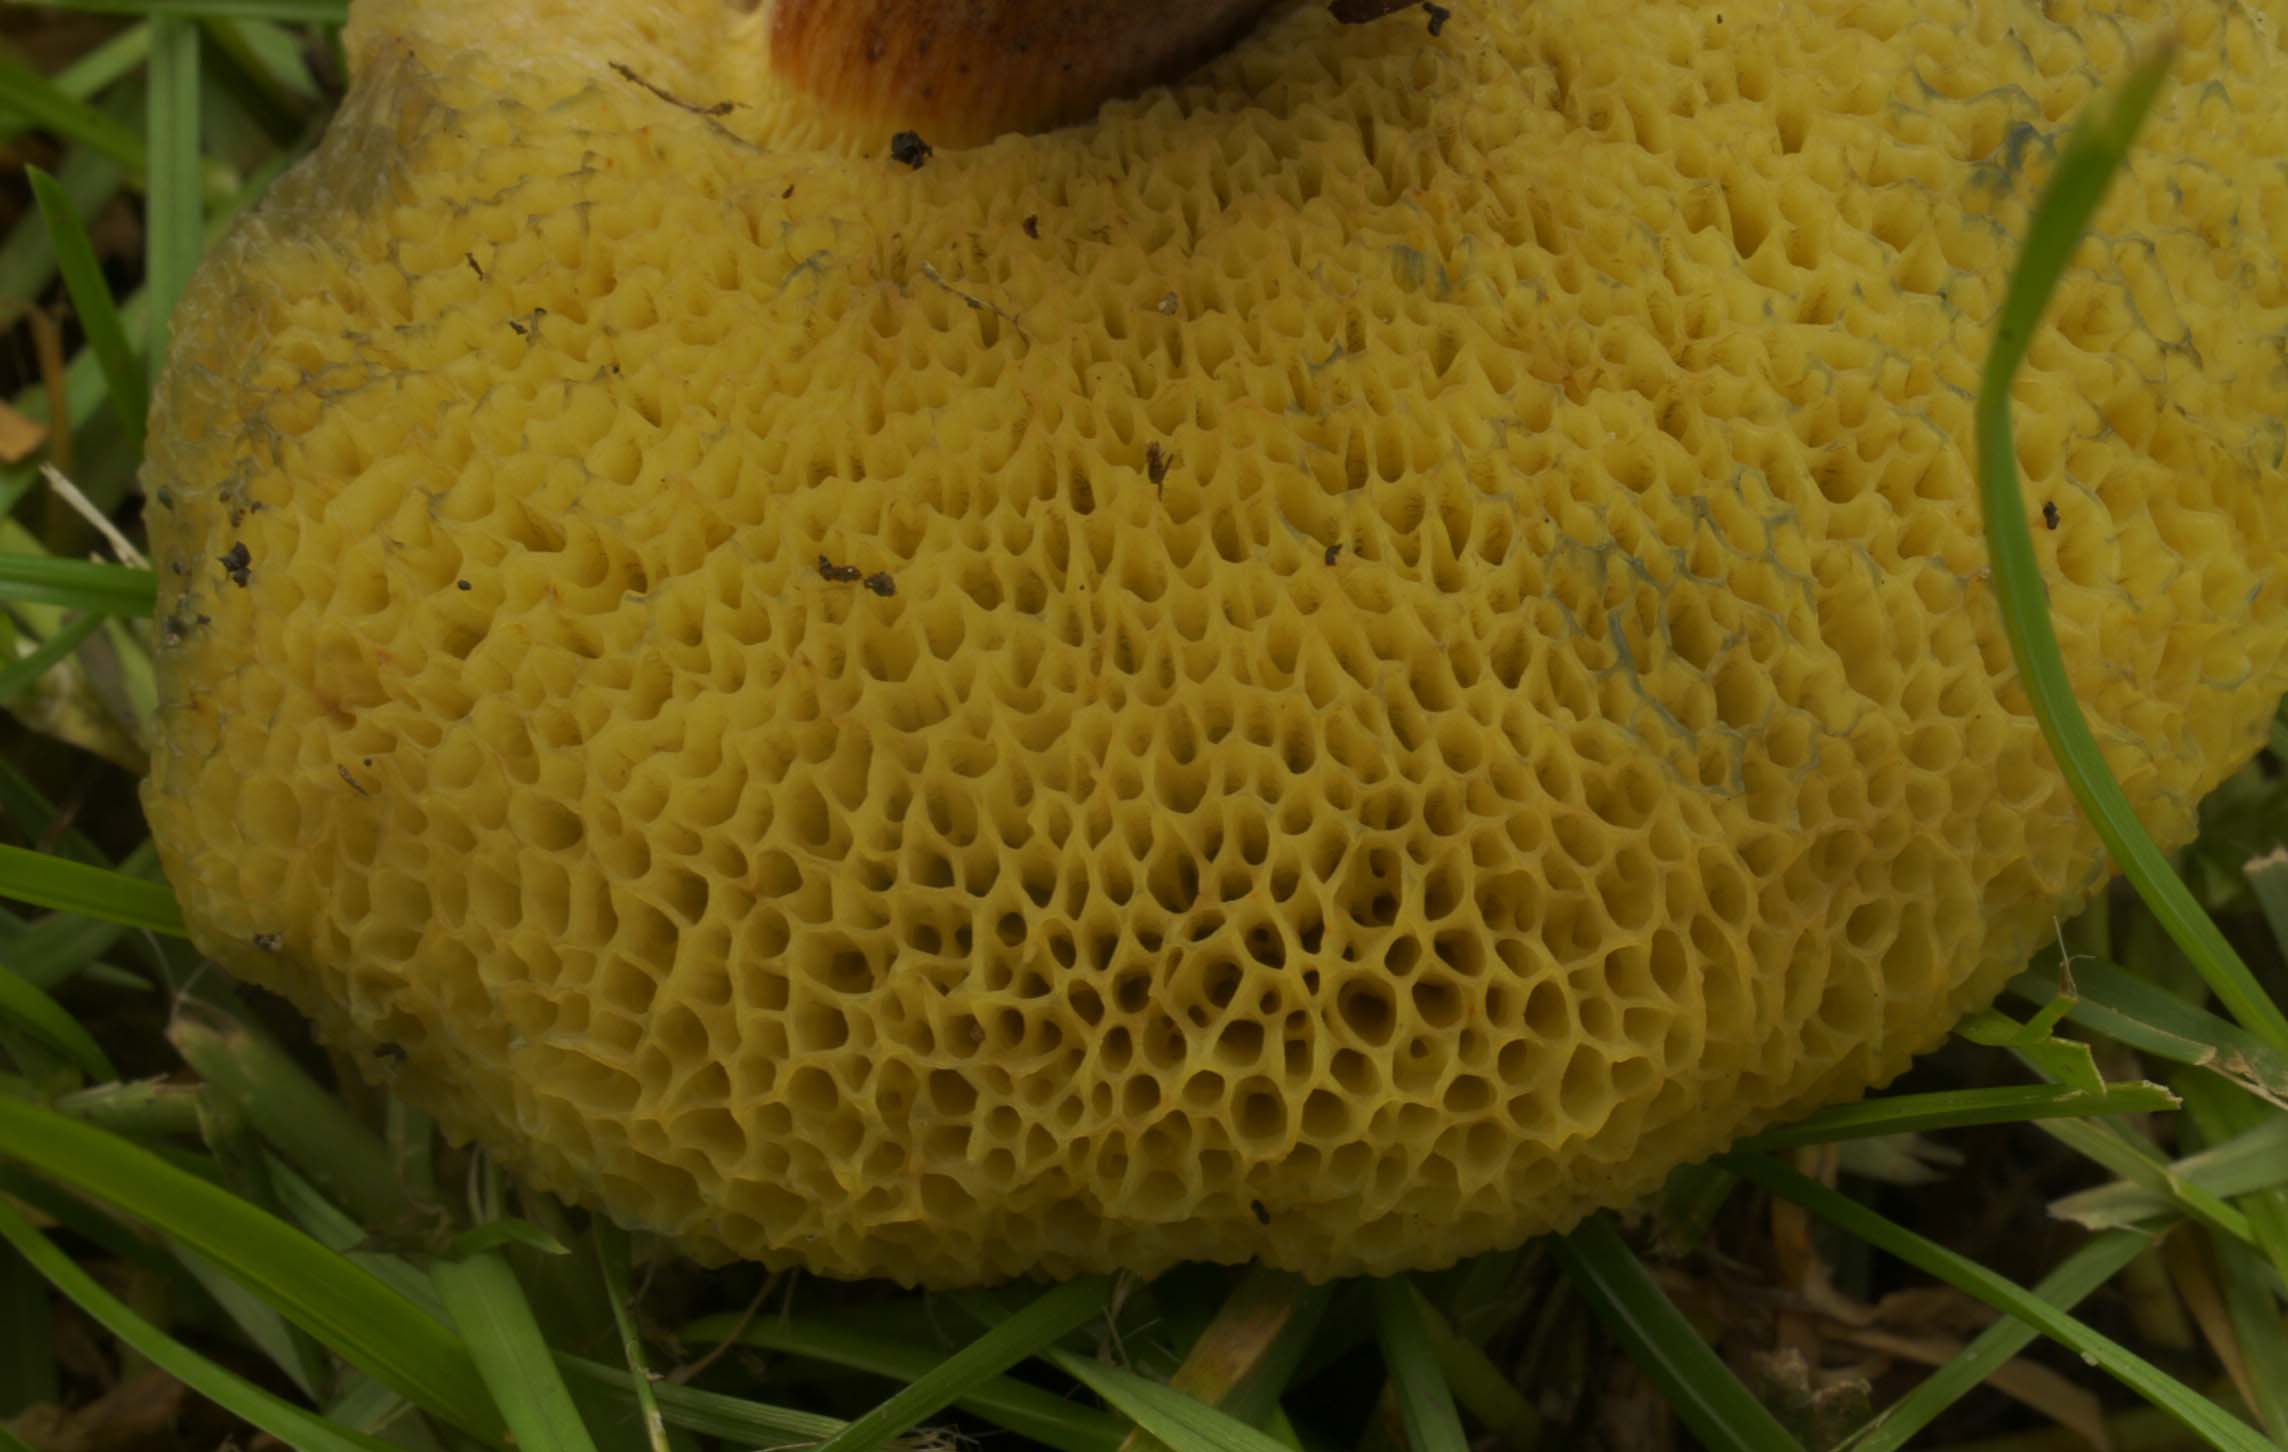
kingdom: Fungi
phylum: Basidiomycota
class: Agaricomycetes
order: Boletales
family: Boletaceae
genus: Hortiboletus
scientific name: Hortiboletus bubalinus
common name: aurora-rørhat
